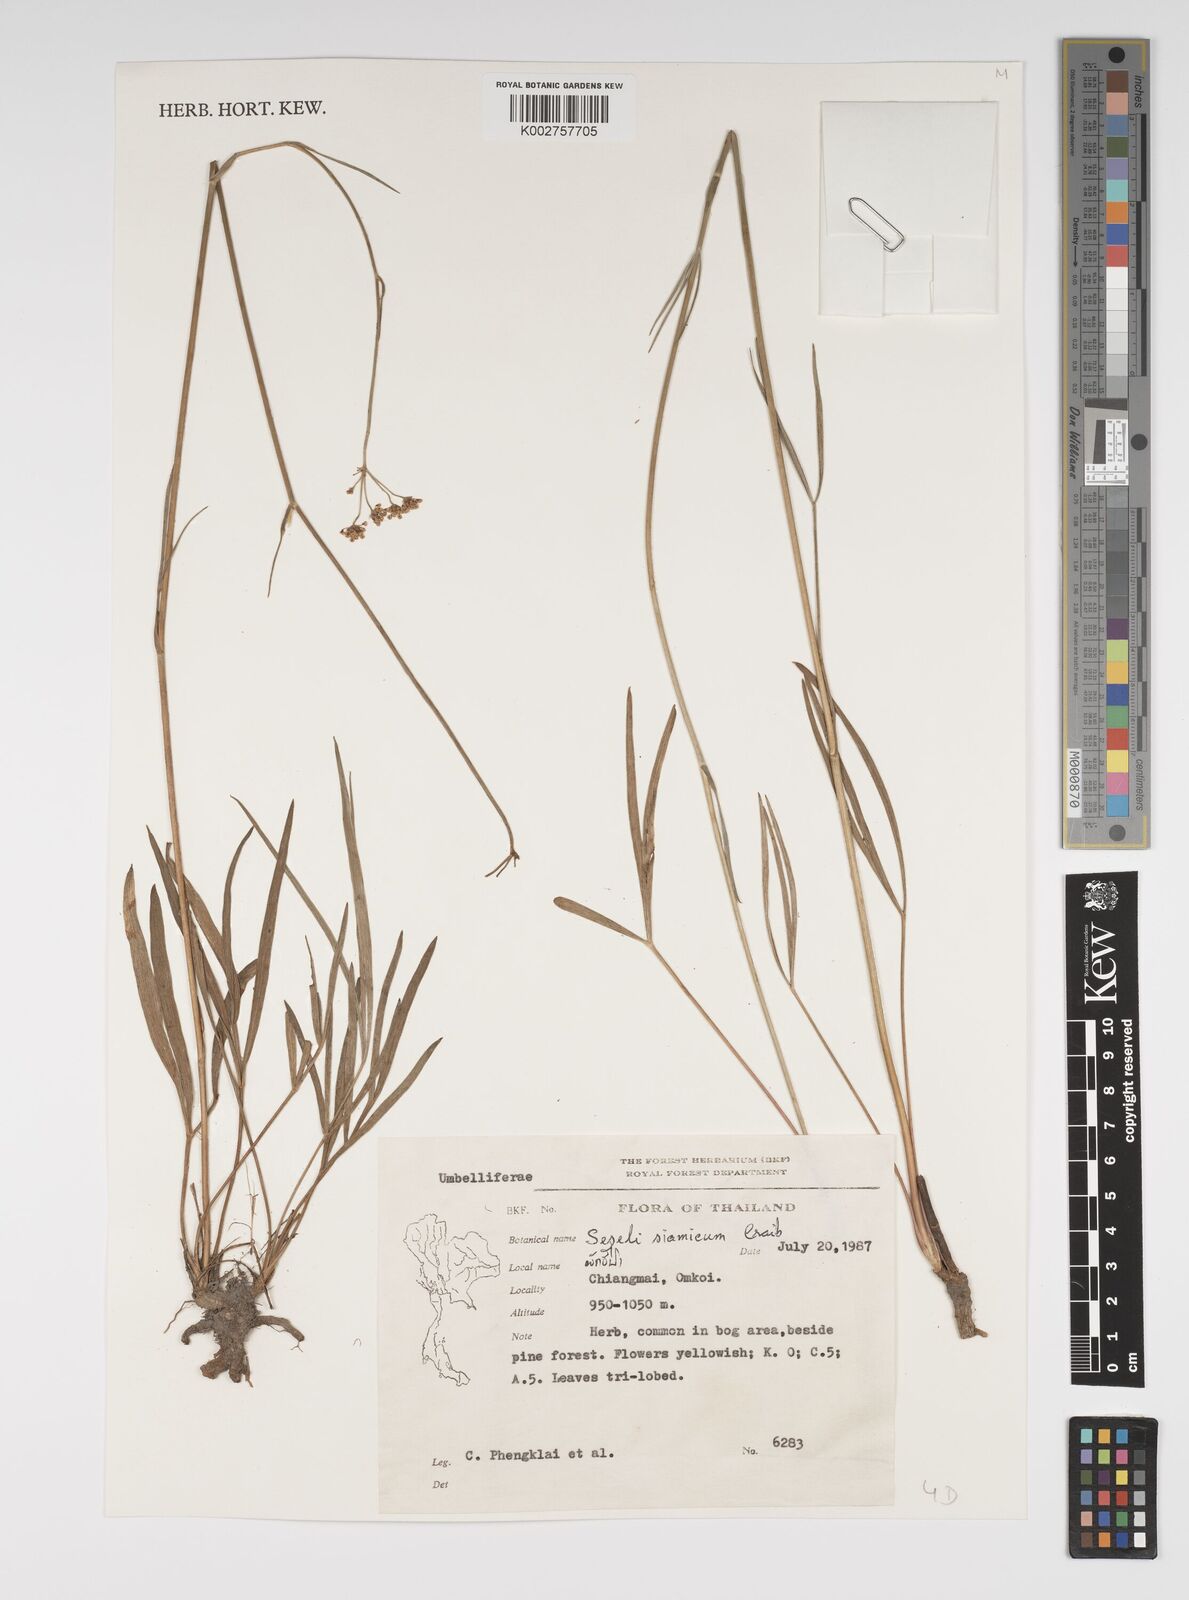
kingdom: Plantae
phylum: Tracheophyta
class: Magnoliopsida
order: Apiales
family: Apiaceae
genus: Seseli
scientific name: Seseli yunnanense
